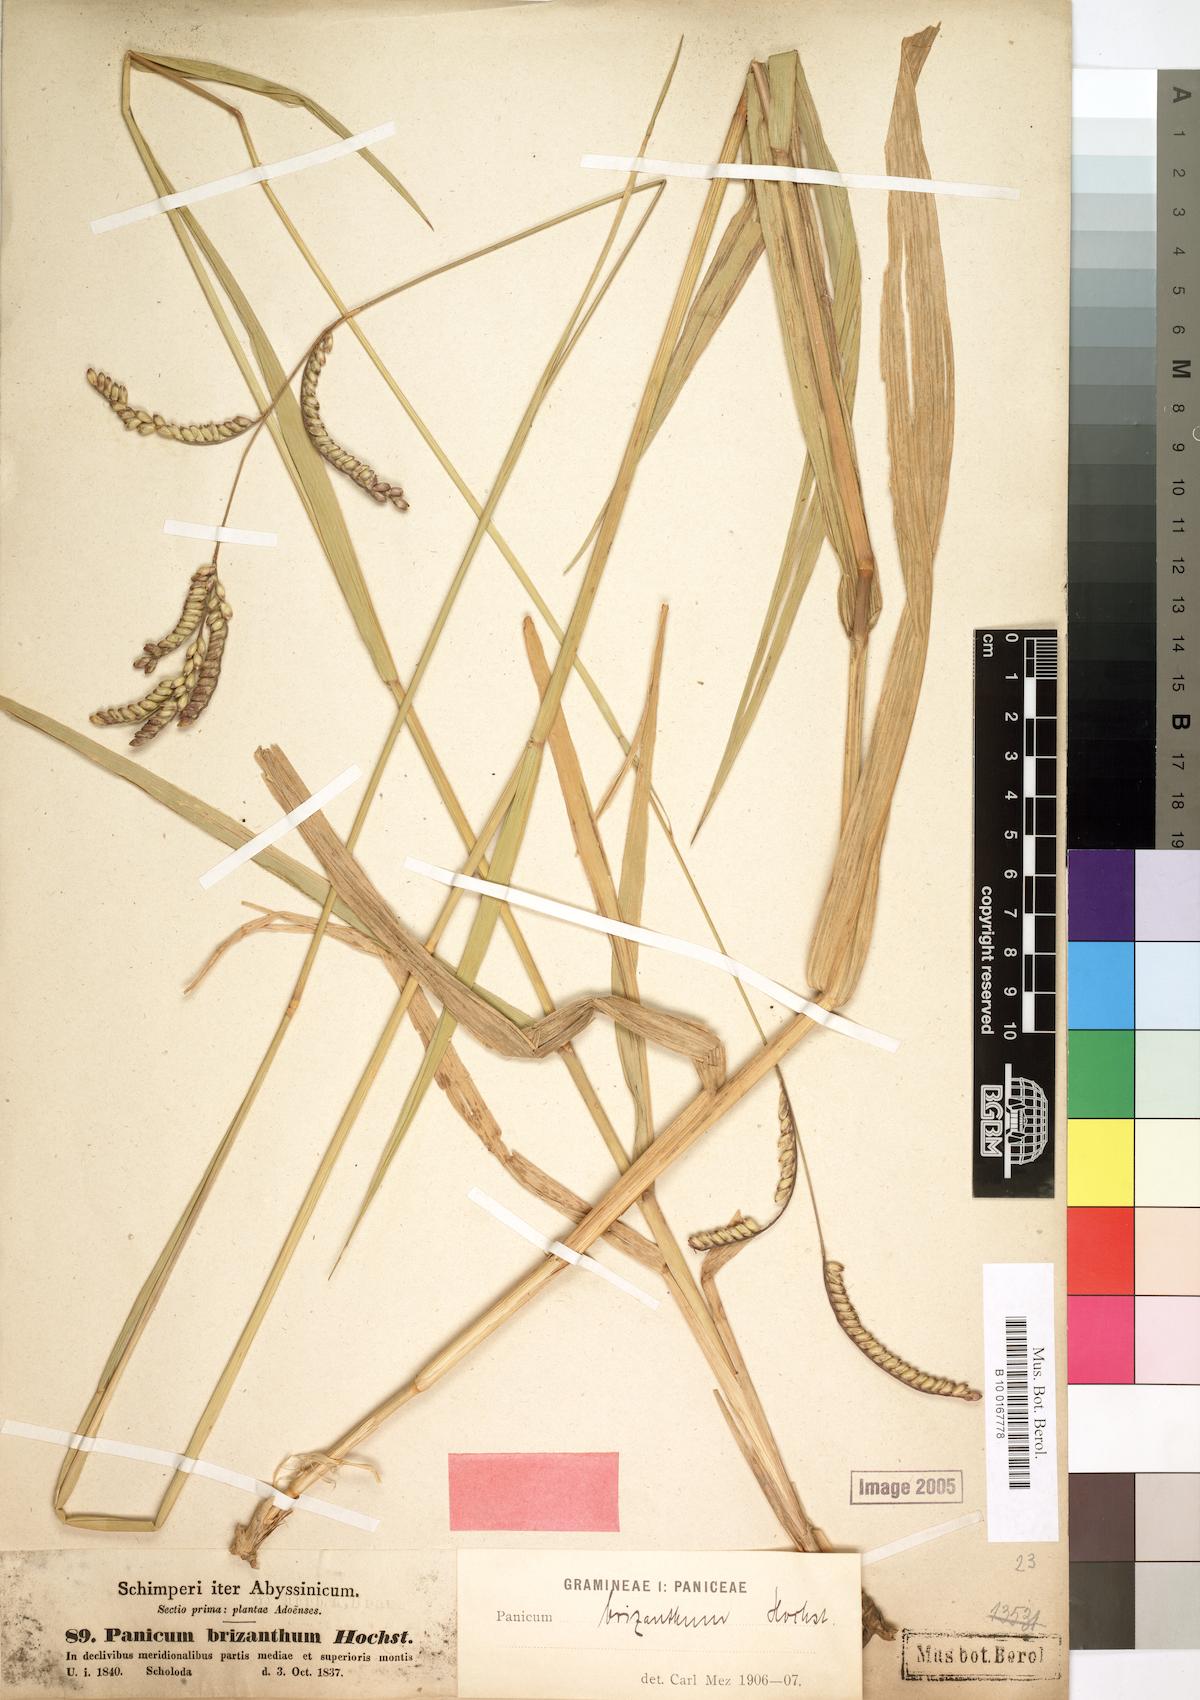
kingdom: Plantae
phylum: Tracheophyta
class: Liliopsida
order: Poales
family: Poaceae
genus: Urochloa
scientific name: Urochloa brizantha
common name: Palisade signalgrass
